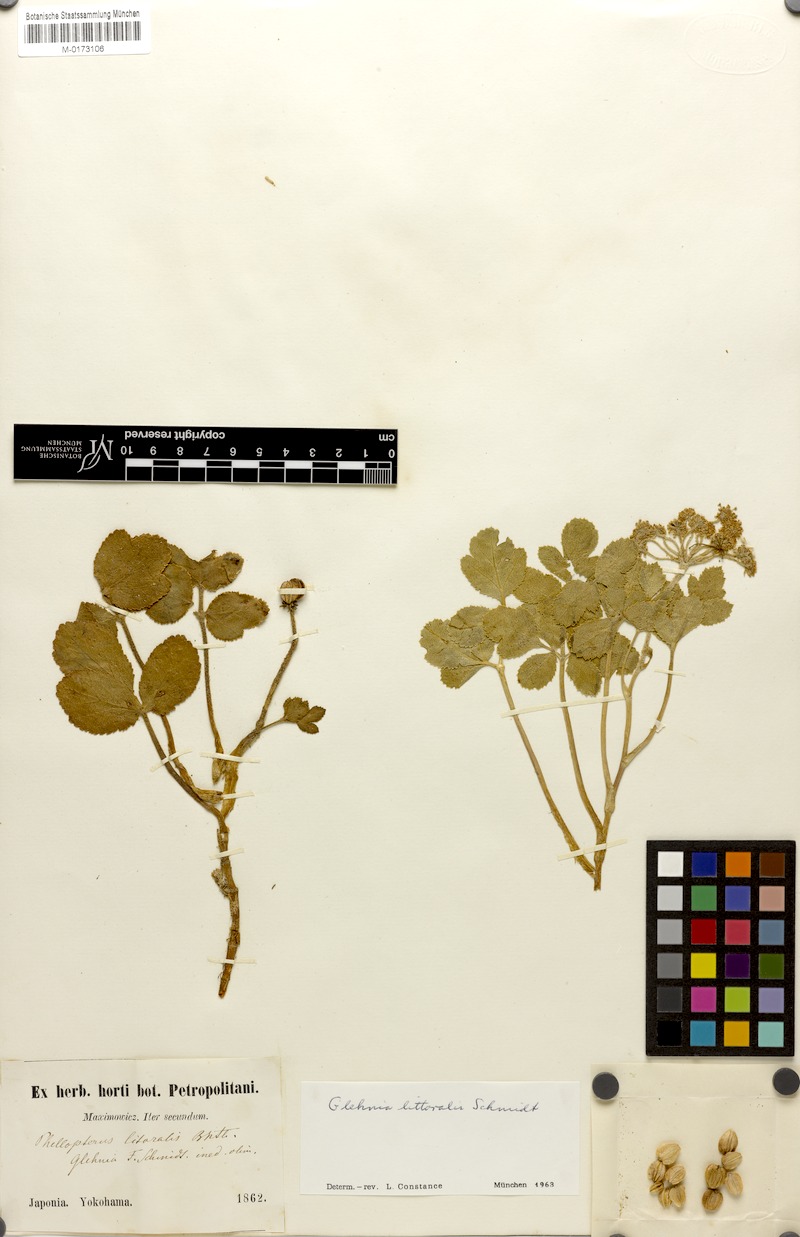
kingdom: Plantae
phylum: Tracheophyta
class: Magnoliopsida
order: Apiales
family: Apiaceae
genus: Glehnia
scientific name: Glehnia littoralis
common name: Beach silvertop
